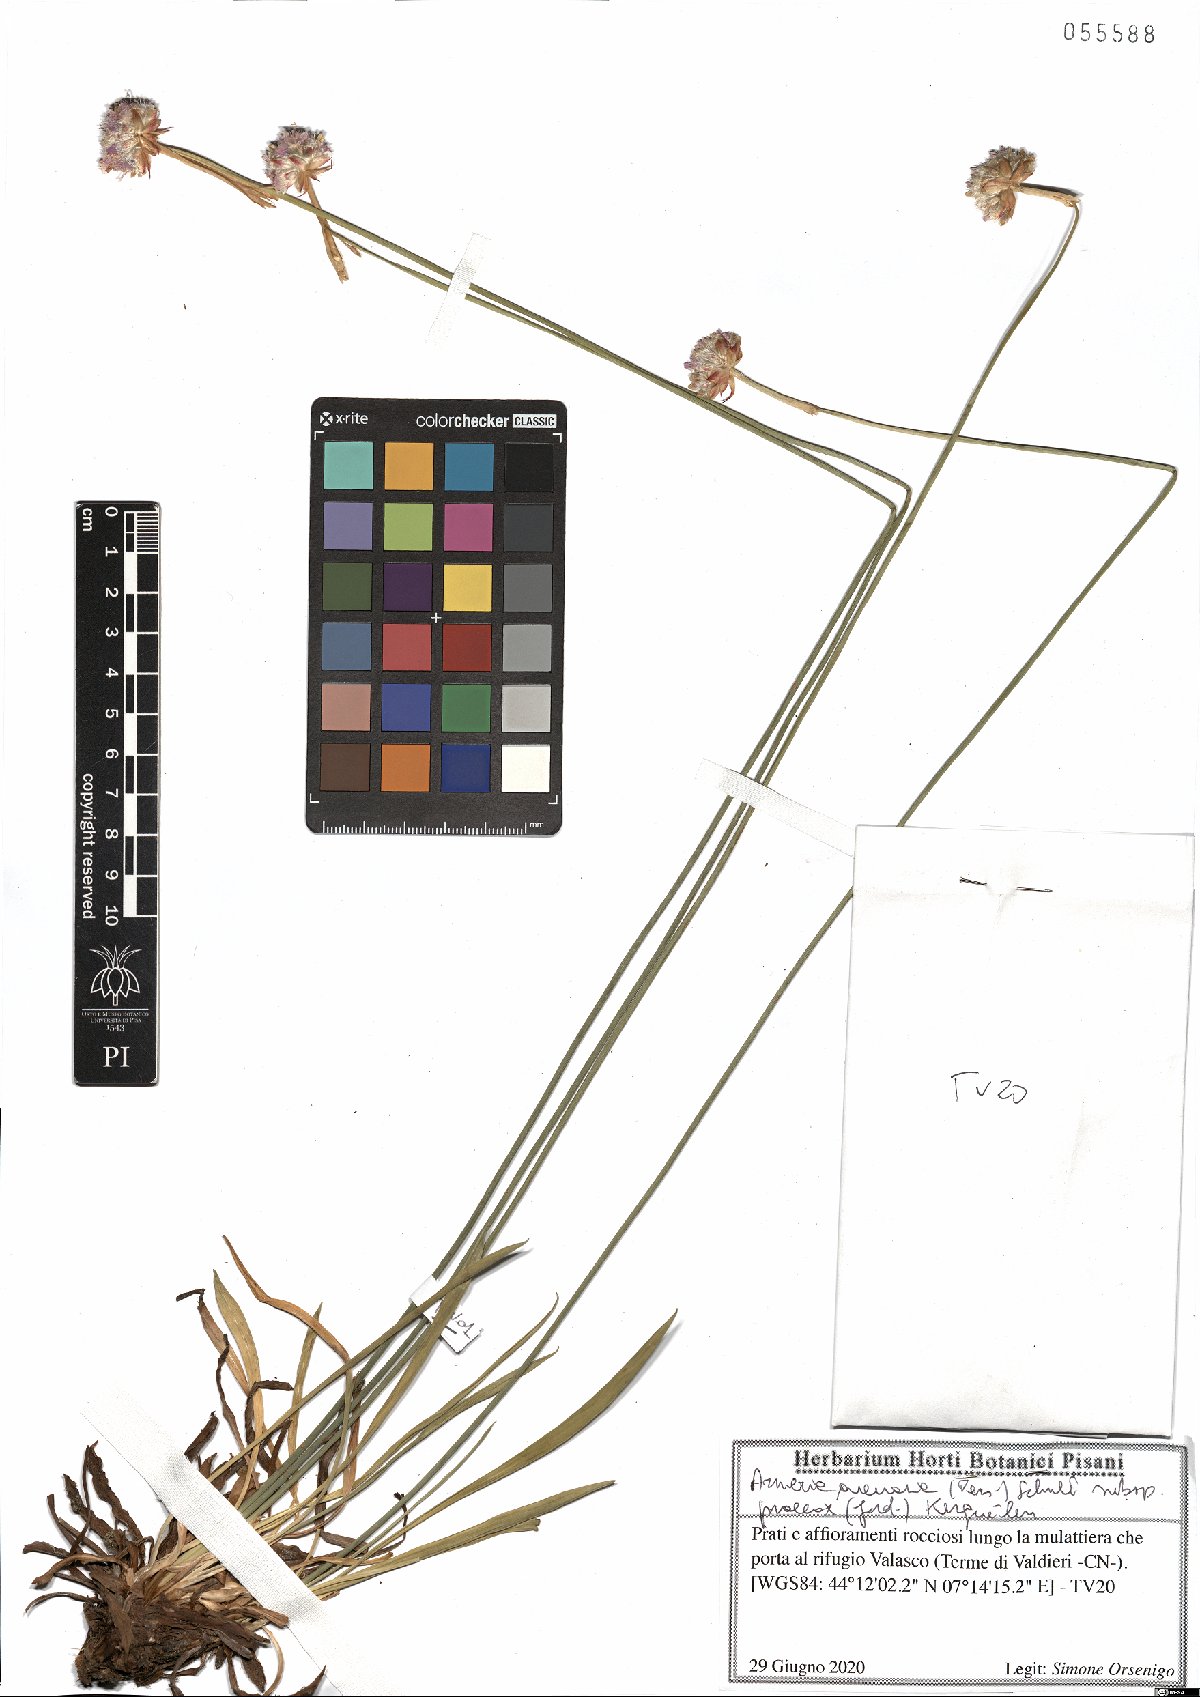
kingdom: Plantae
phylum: Tracheophyta
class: Magnoliopsida
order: Caryophyllales
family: Plumbaginaceae
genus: Armeria
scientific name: Armeria arenaria
